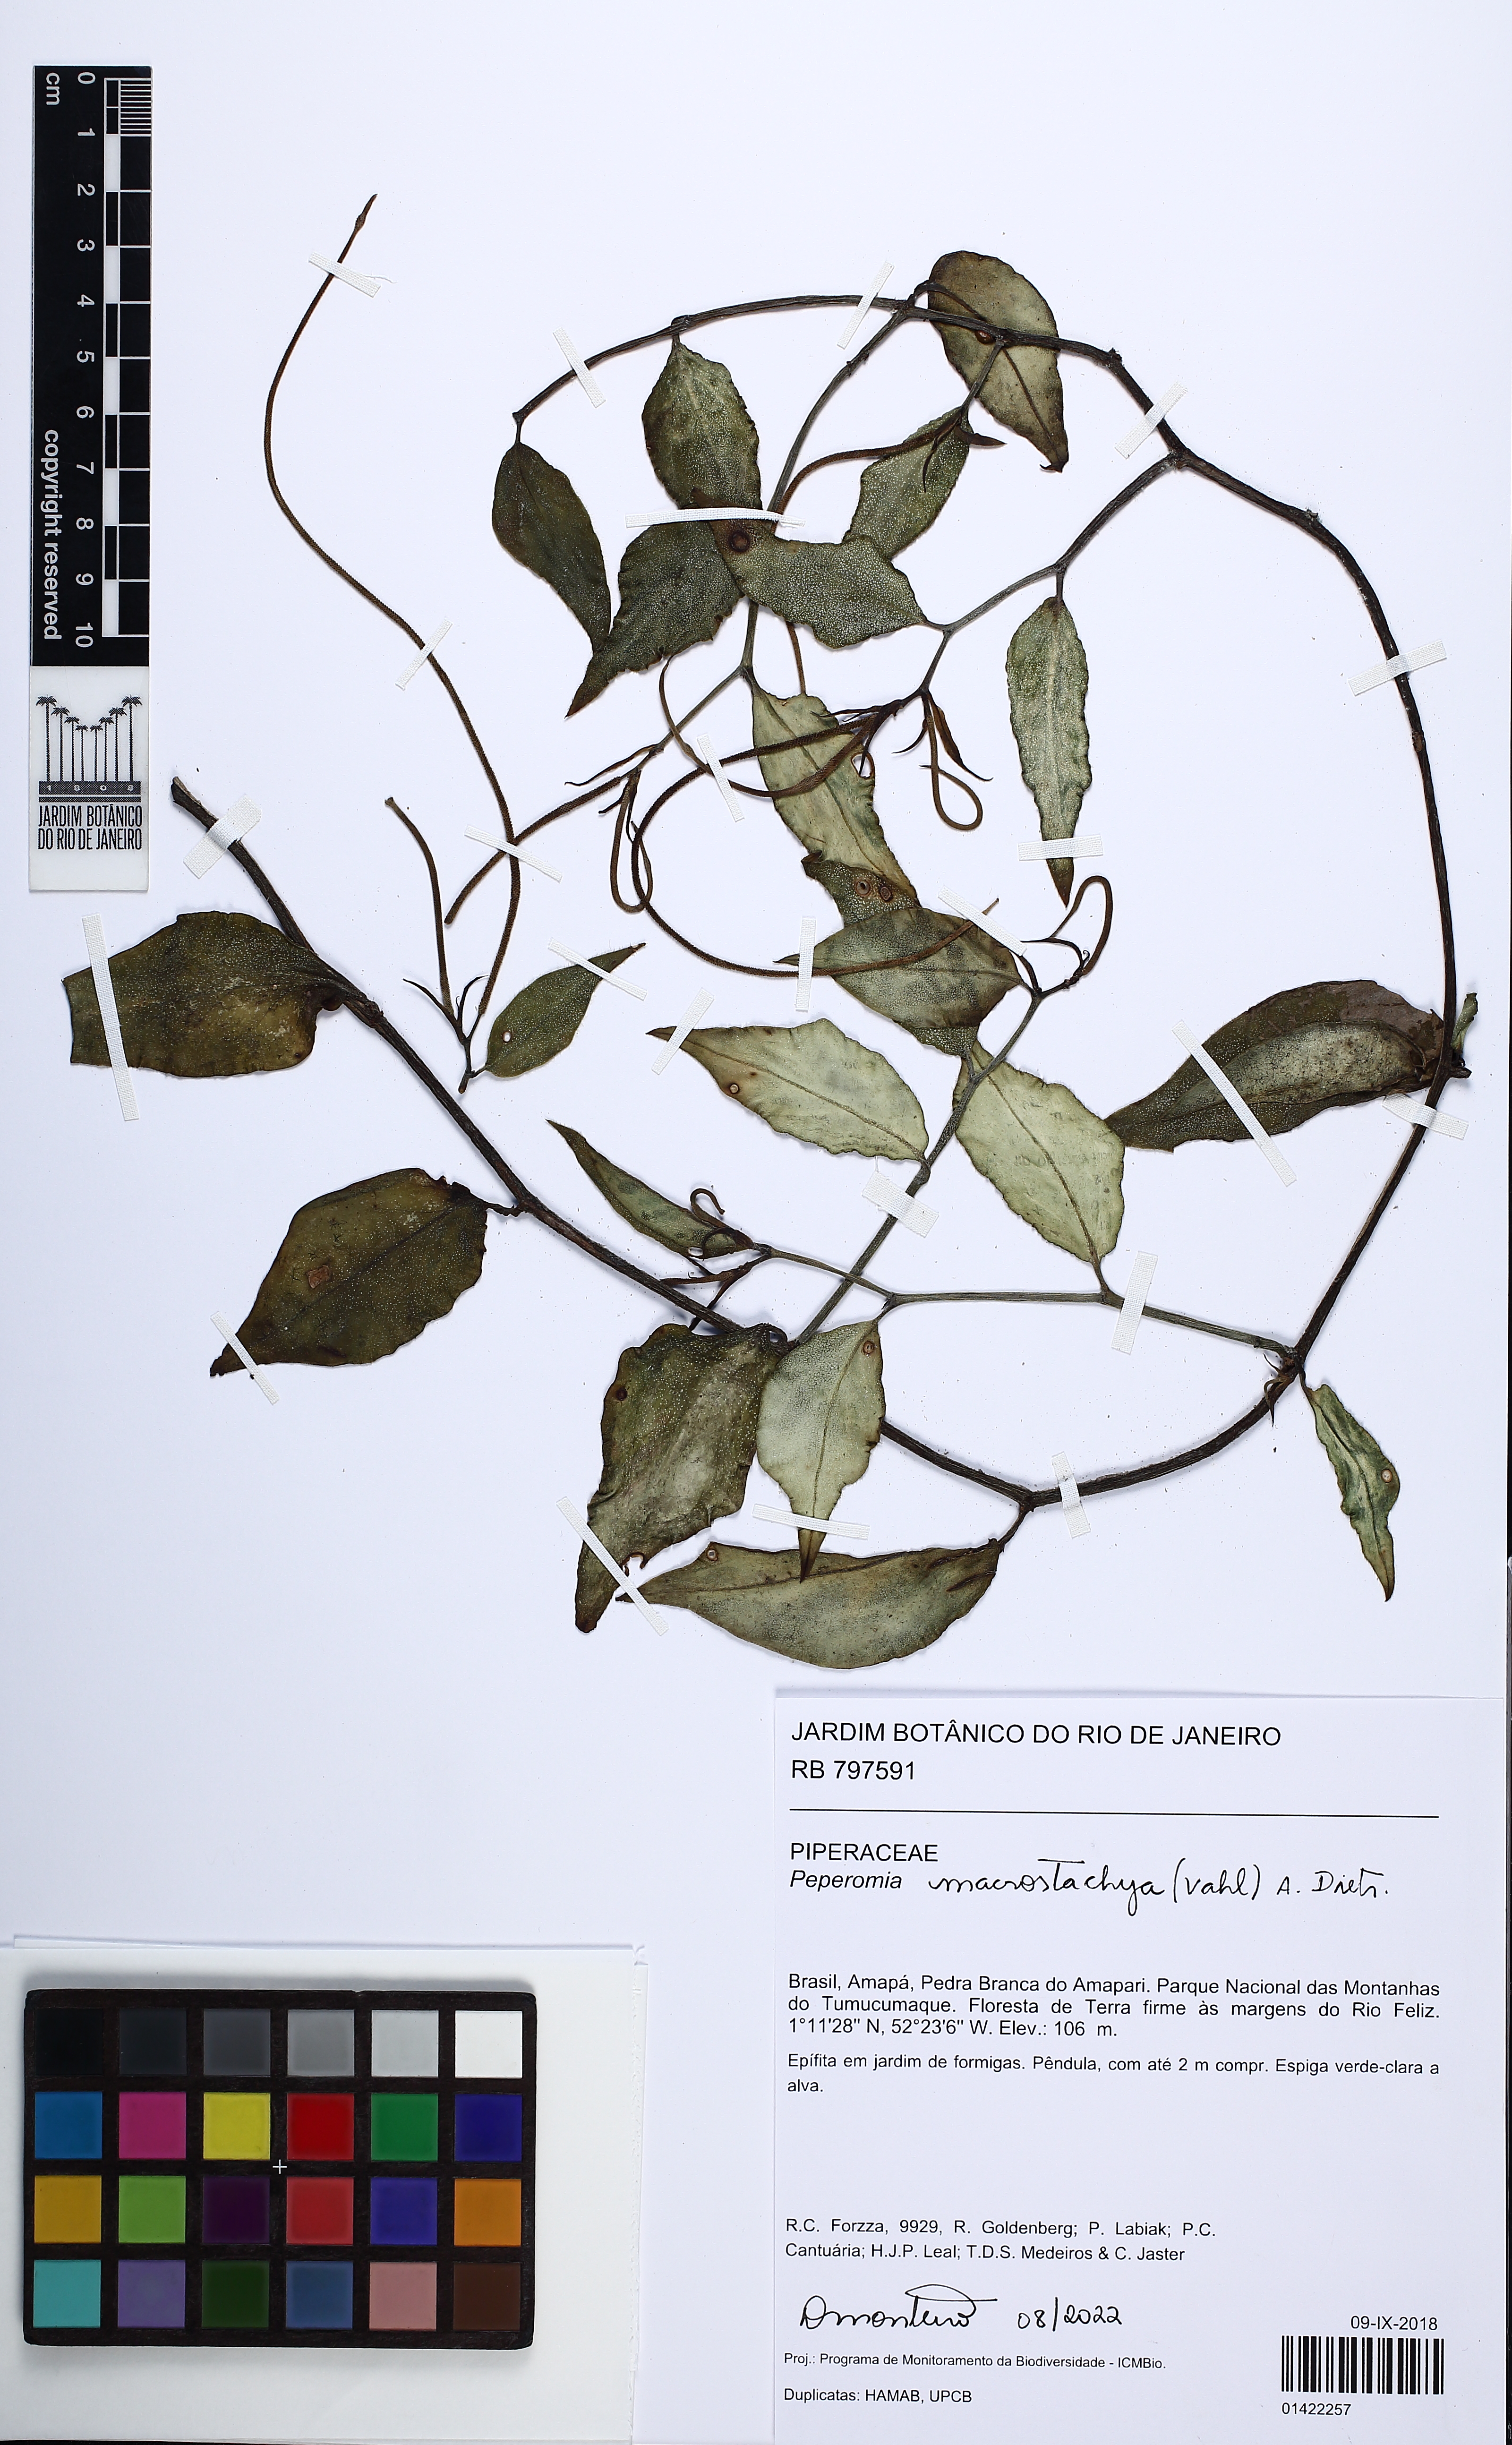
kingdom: Plantae
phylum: Tracheophyta
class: Magnoliopsida
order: Piperales
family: Piperaceae
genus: Peperomia
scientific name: Peperomia macrostachyos
